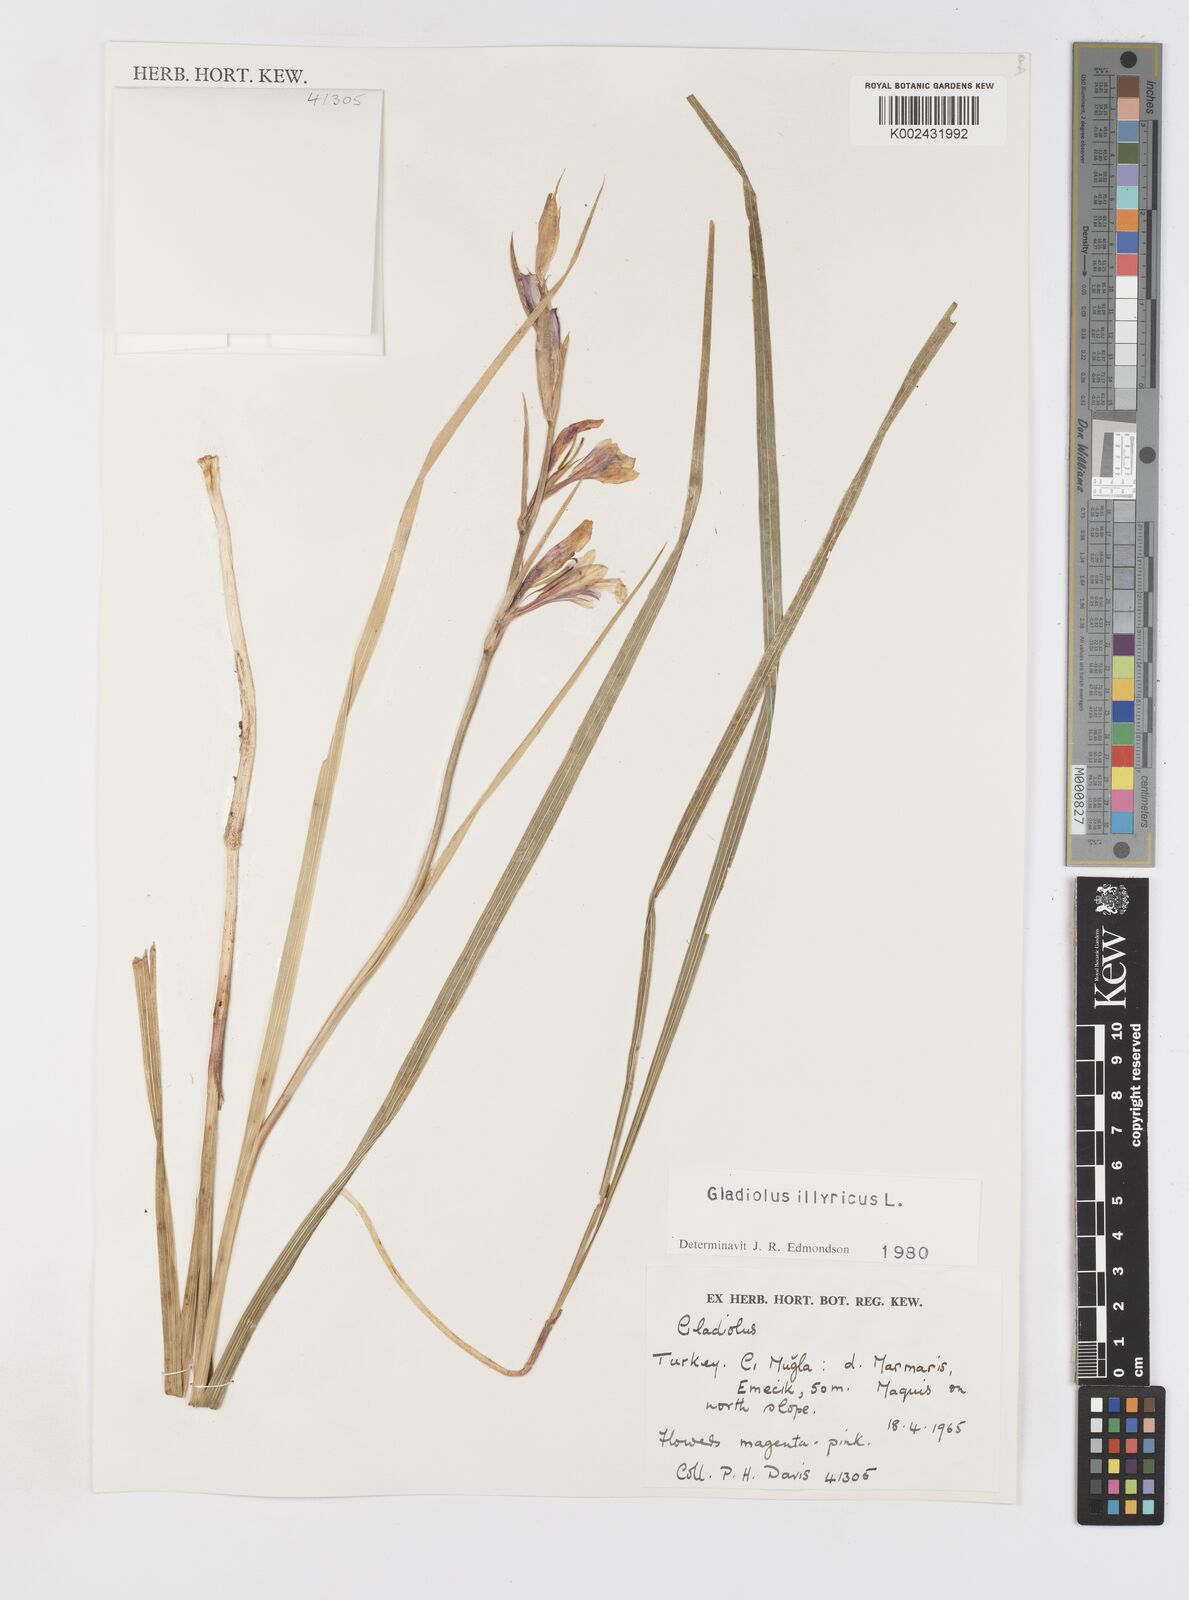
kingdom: Plantae
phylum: Tracheophyta
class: Liliopsida
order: Asparagales
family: Iridaceae
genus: Gladiolus
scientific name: Gladiolus illyricus
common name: Wild gladiolus
